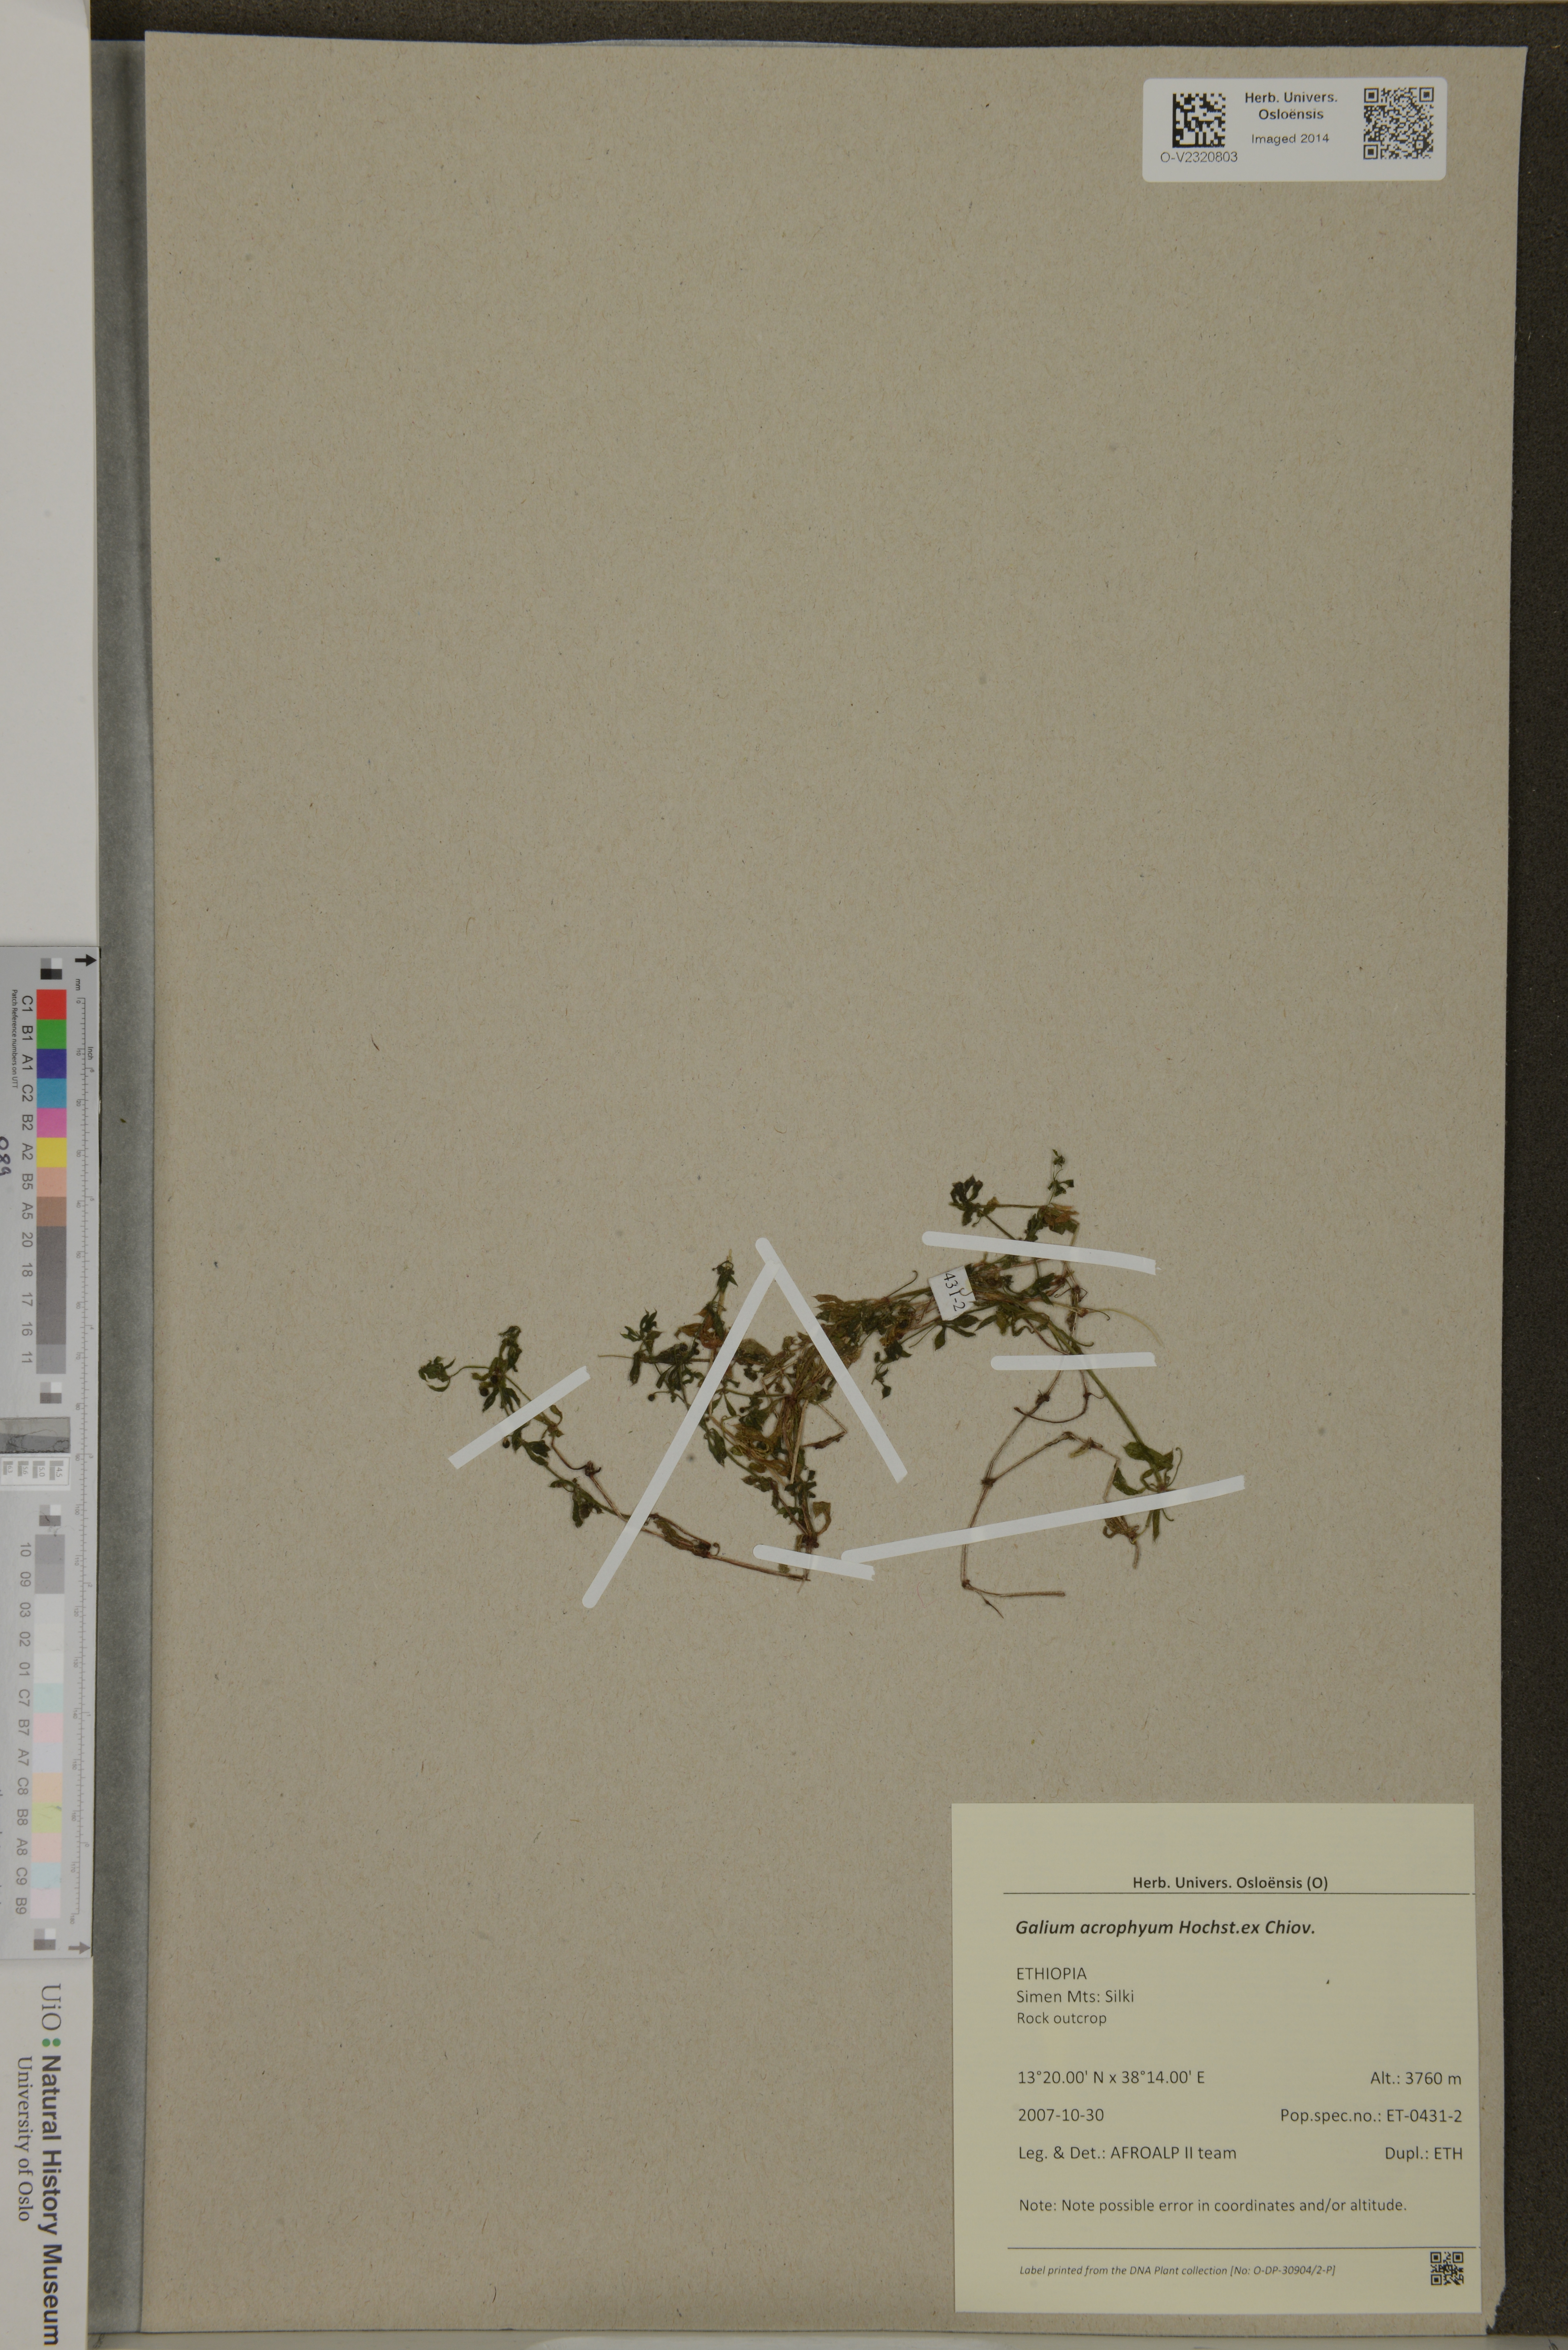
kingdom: Plantae
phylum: Tracheophyta
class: Magnoliopsida
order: Gentianales
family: Rubiaceae
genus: Galium
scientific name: Galium acrophyum
